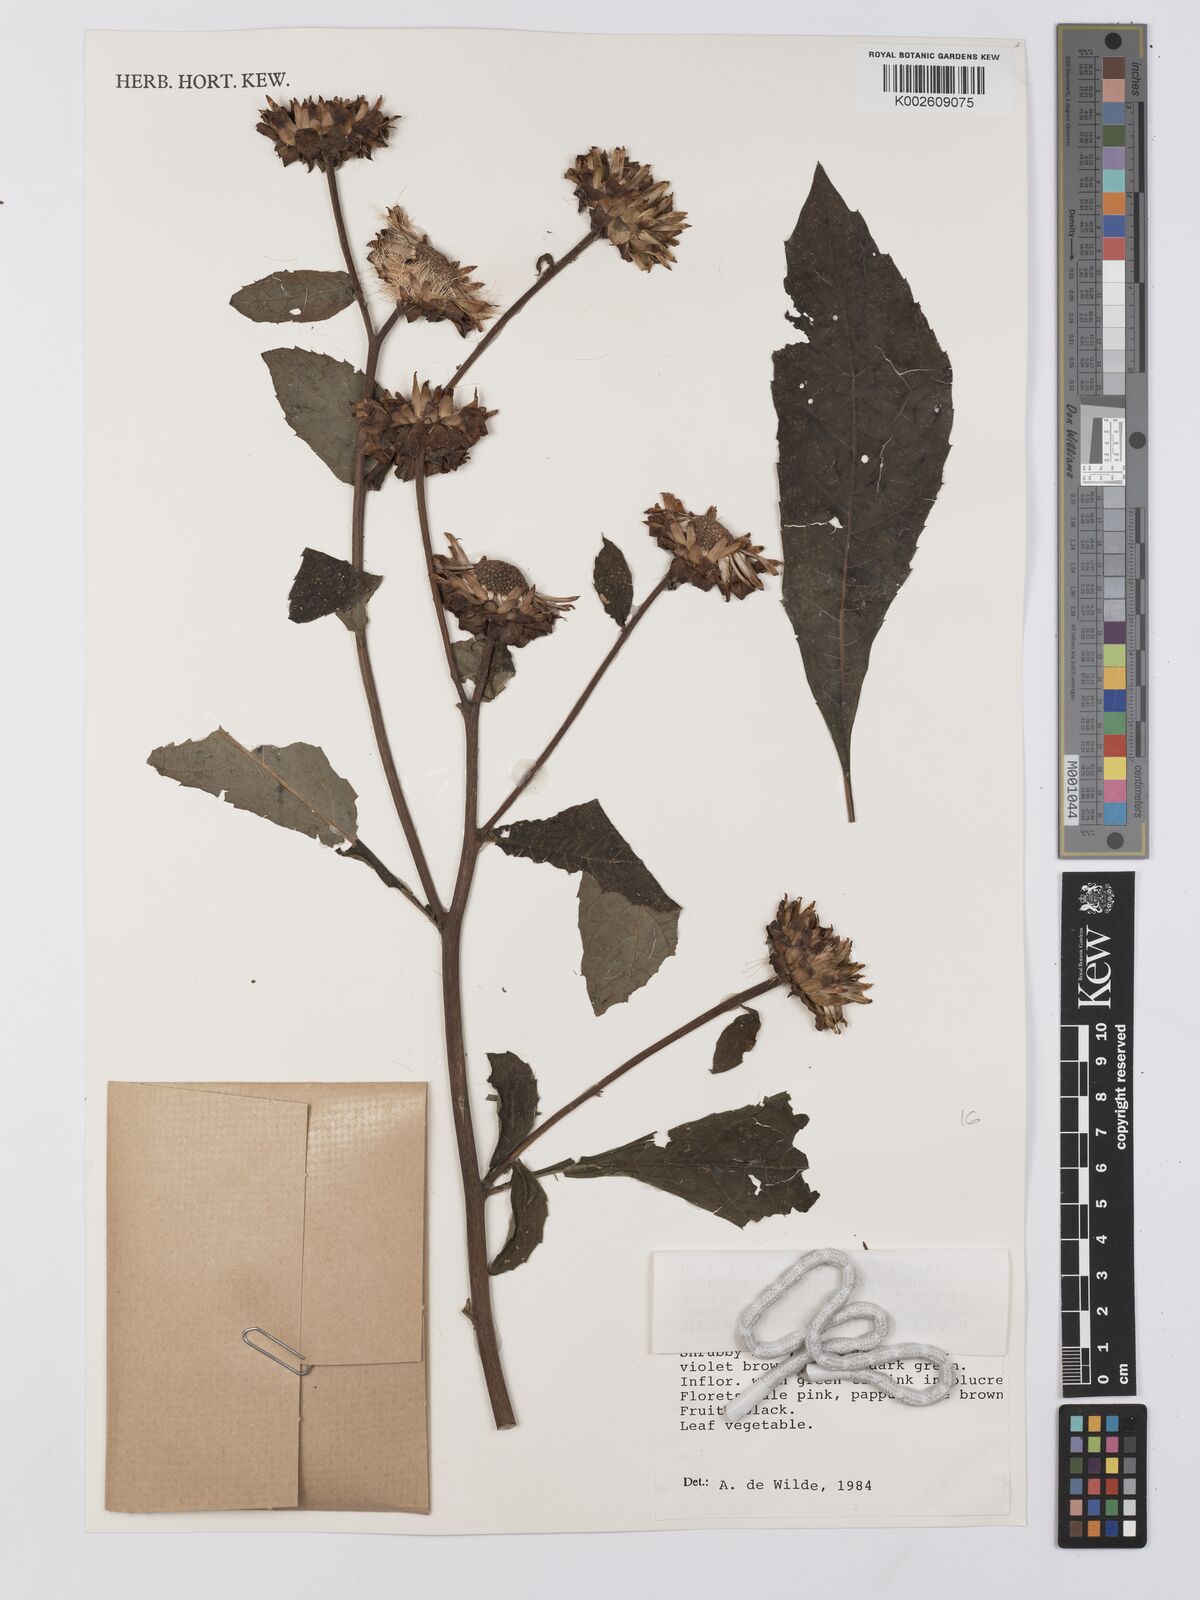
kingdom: Plantae
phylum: Tracheophyta
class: Magnoliopsida
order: Asterales
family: Asteraceae
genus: Baccharoides
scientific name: Baccharoides hymenolepis
